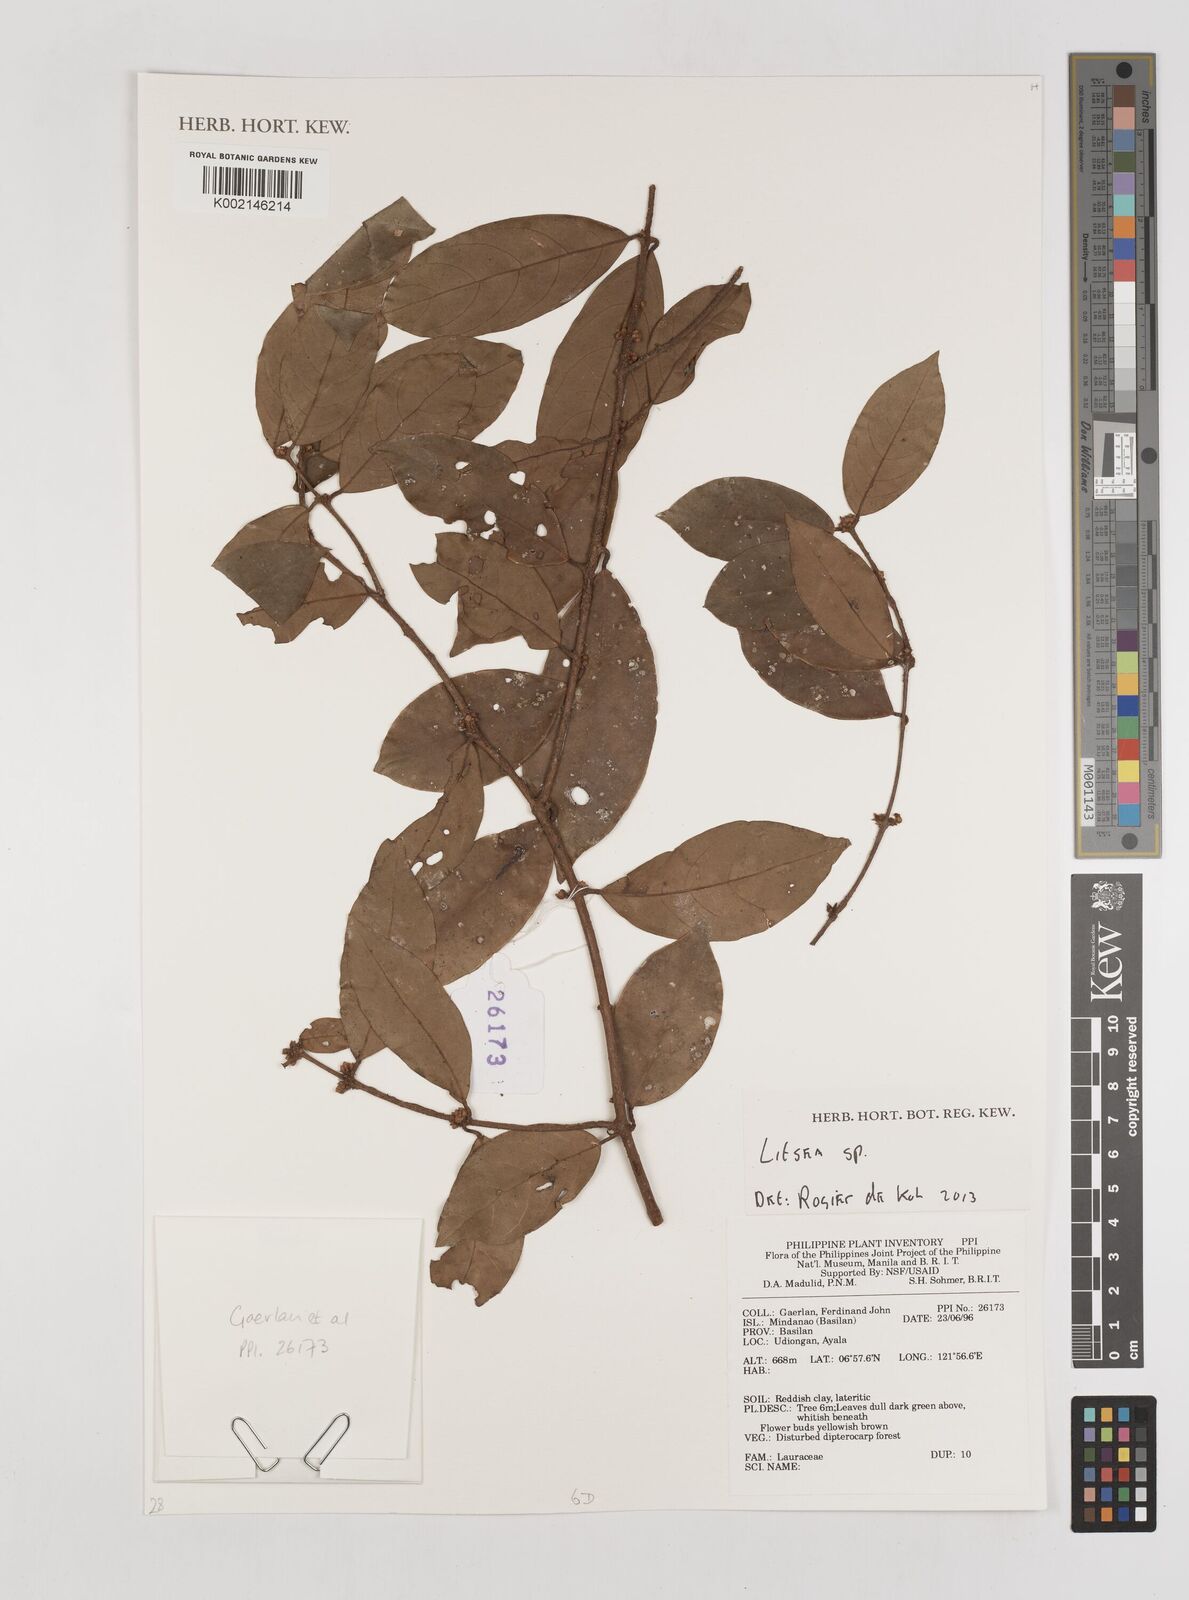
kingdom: Plantae
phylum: Tracheophyta
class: Magnoliopsida
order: Laurales
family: Lauraceae
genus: Litsea
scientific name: Litsea
